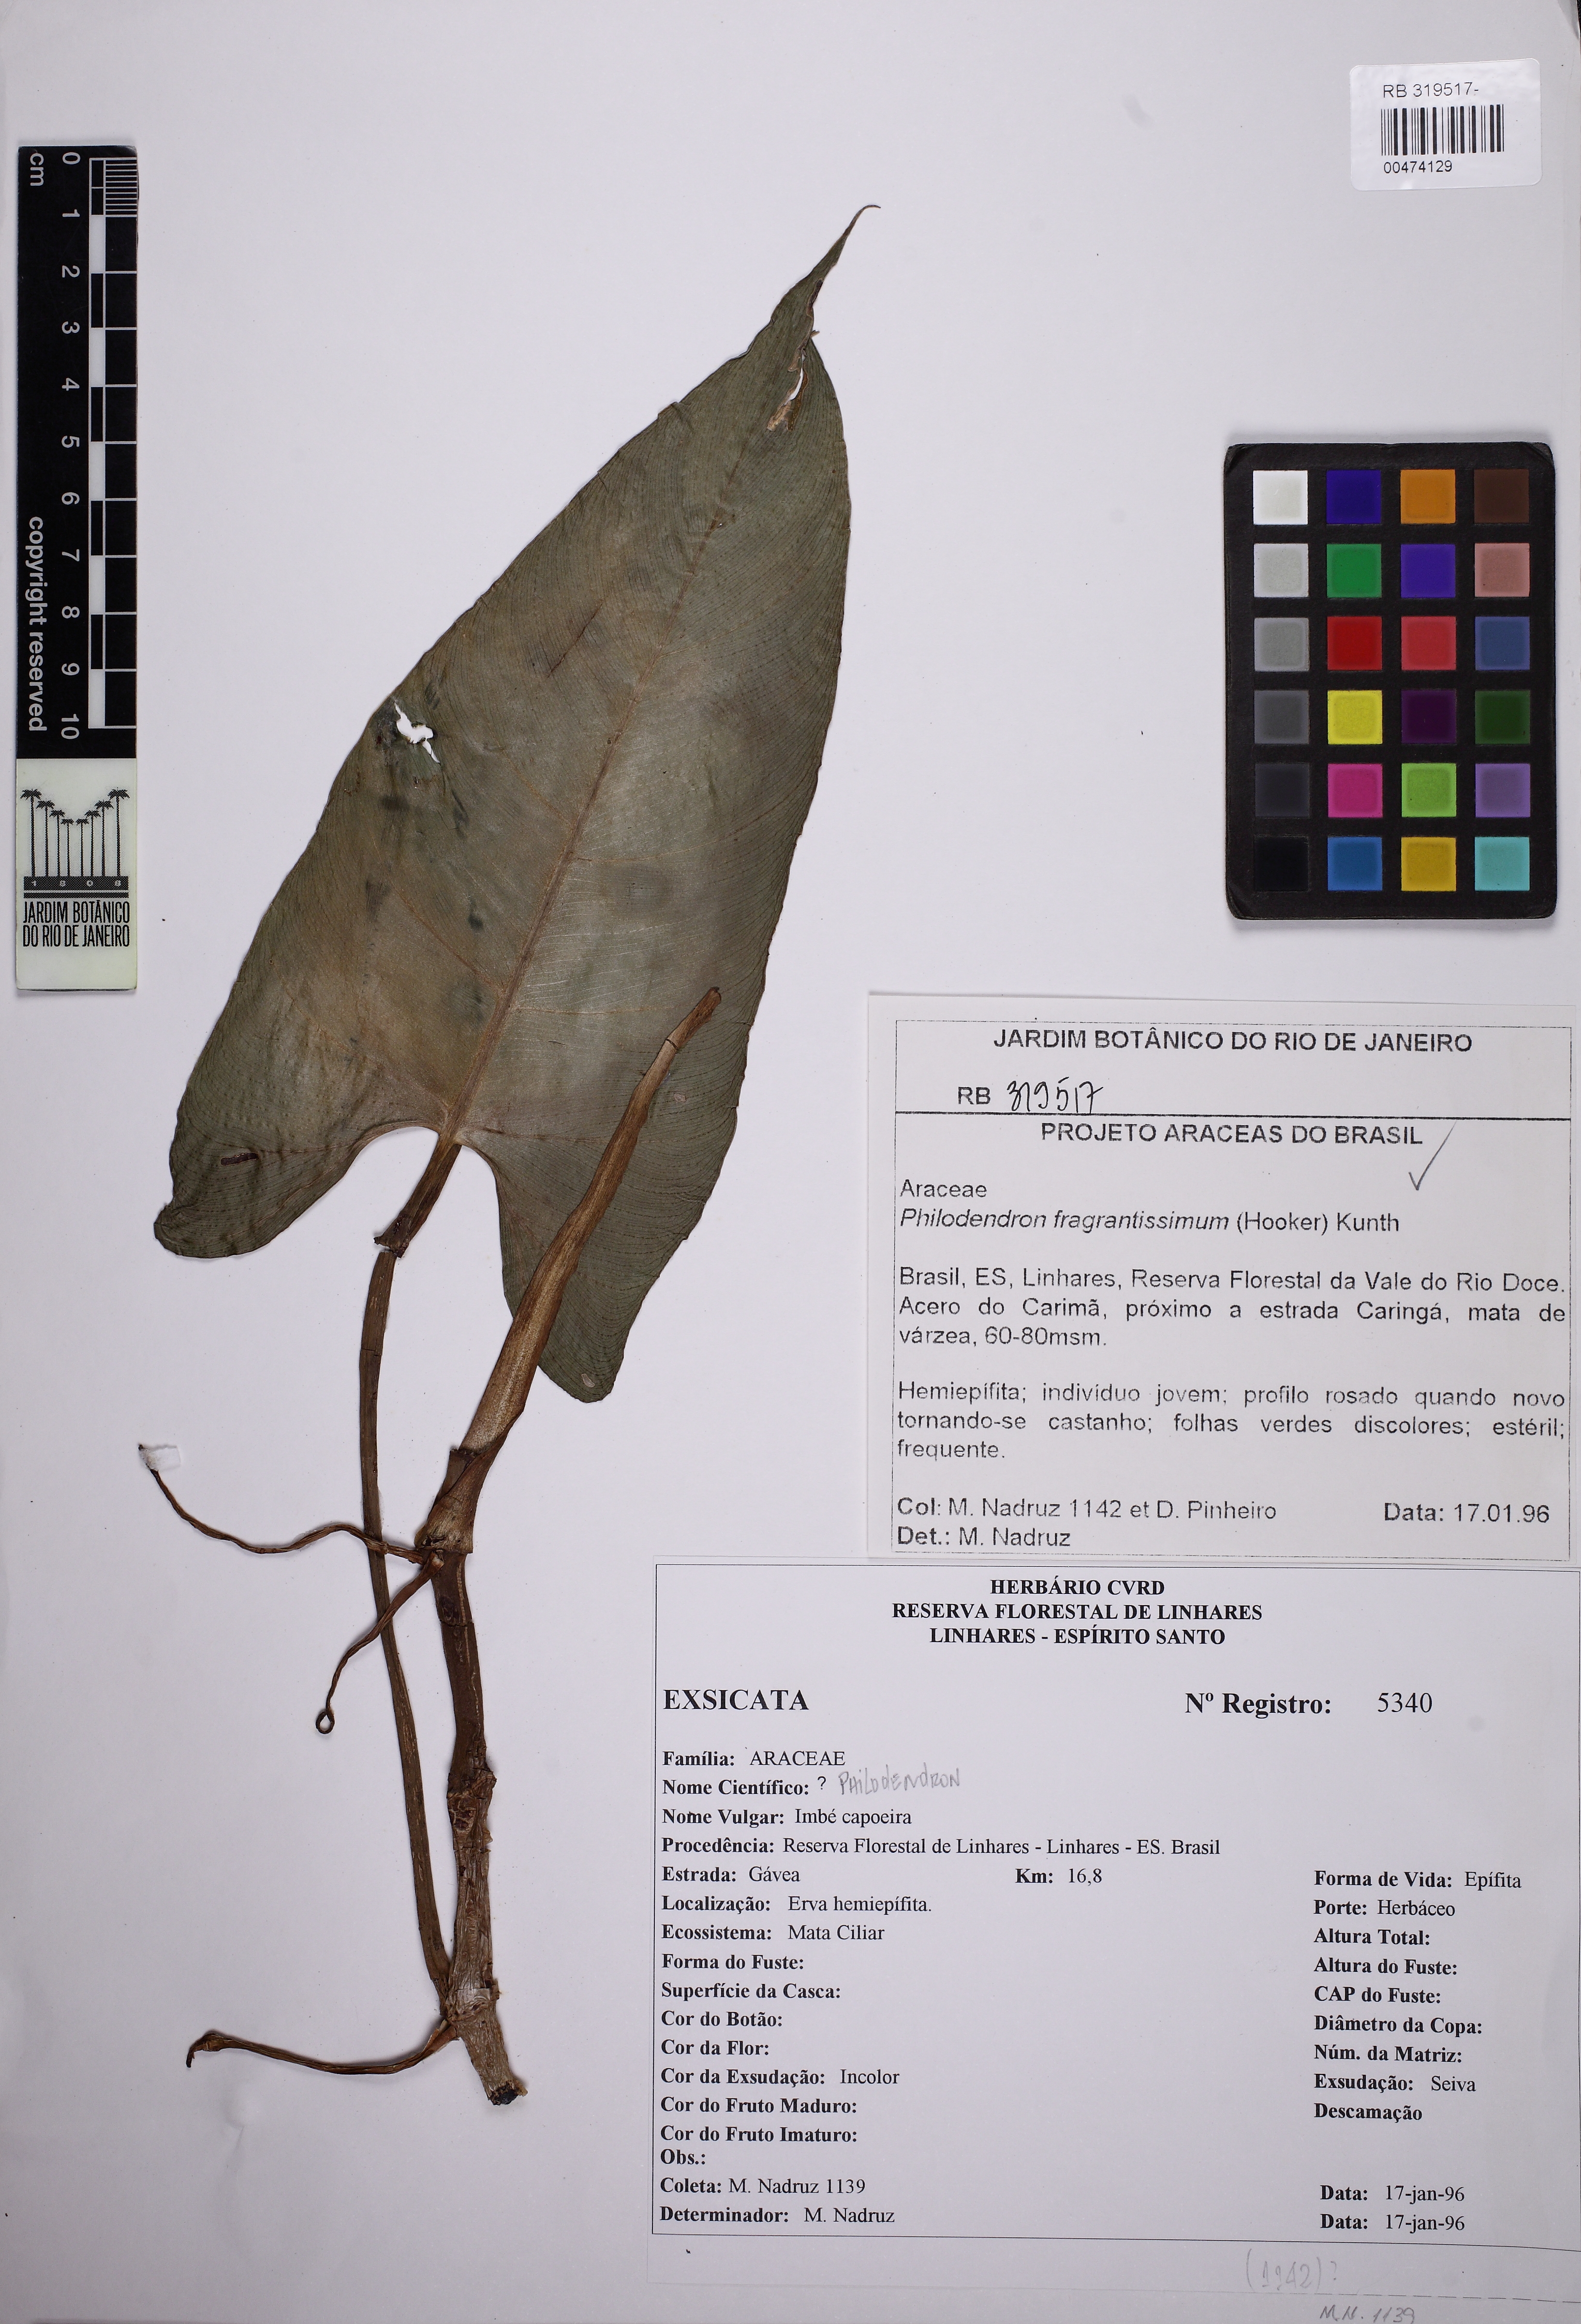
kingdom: Plantae
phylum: Tracheophyta
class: Liliopsida
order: Alismatales
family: Araceae
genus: Philodendron
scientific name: Philodendron fragrantissimum
